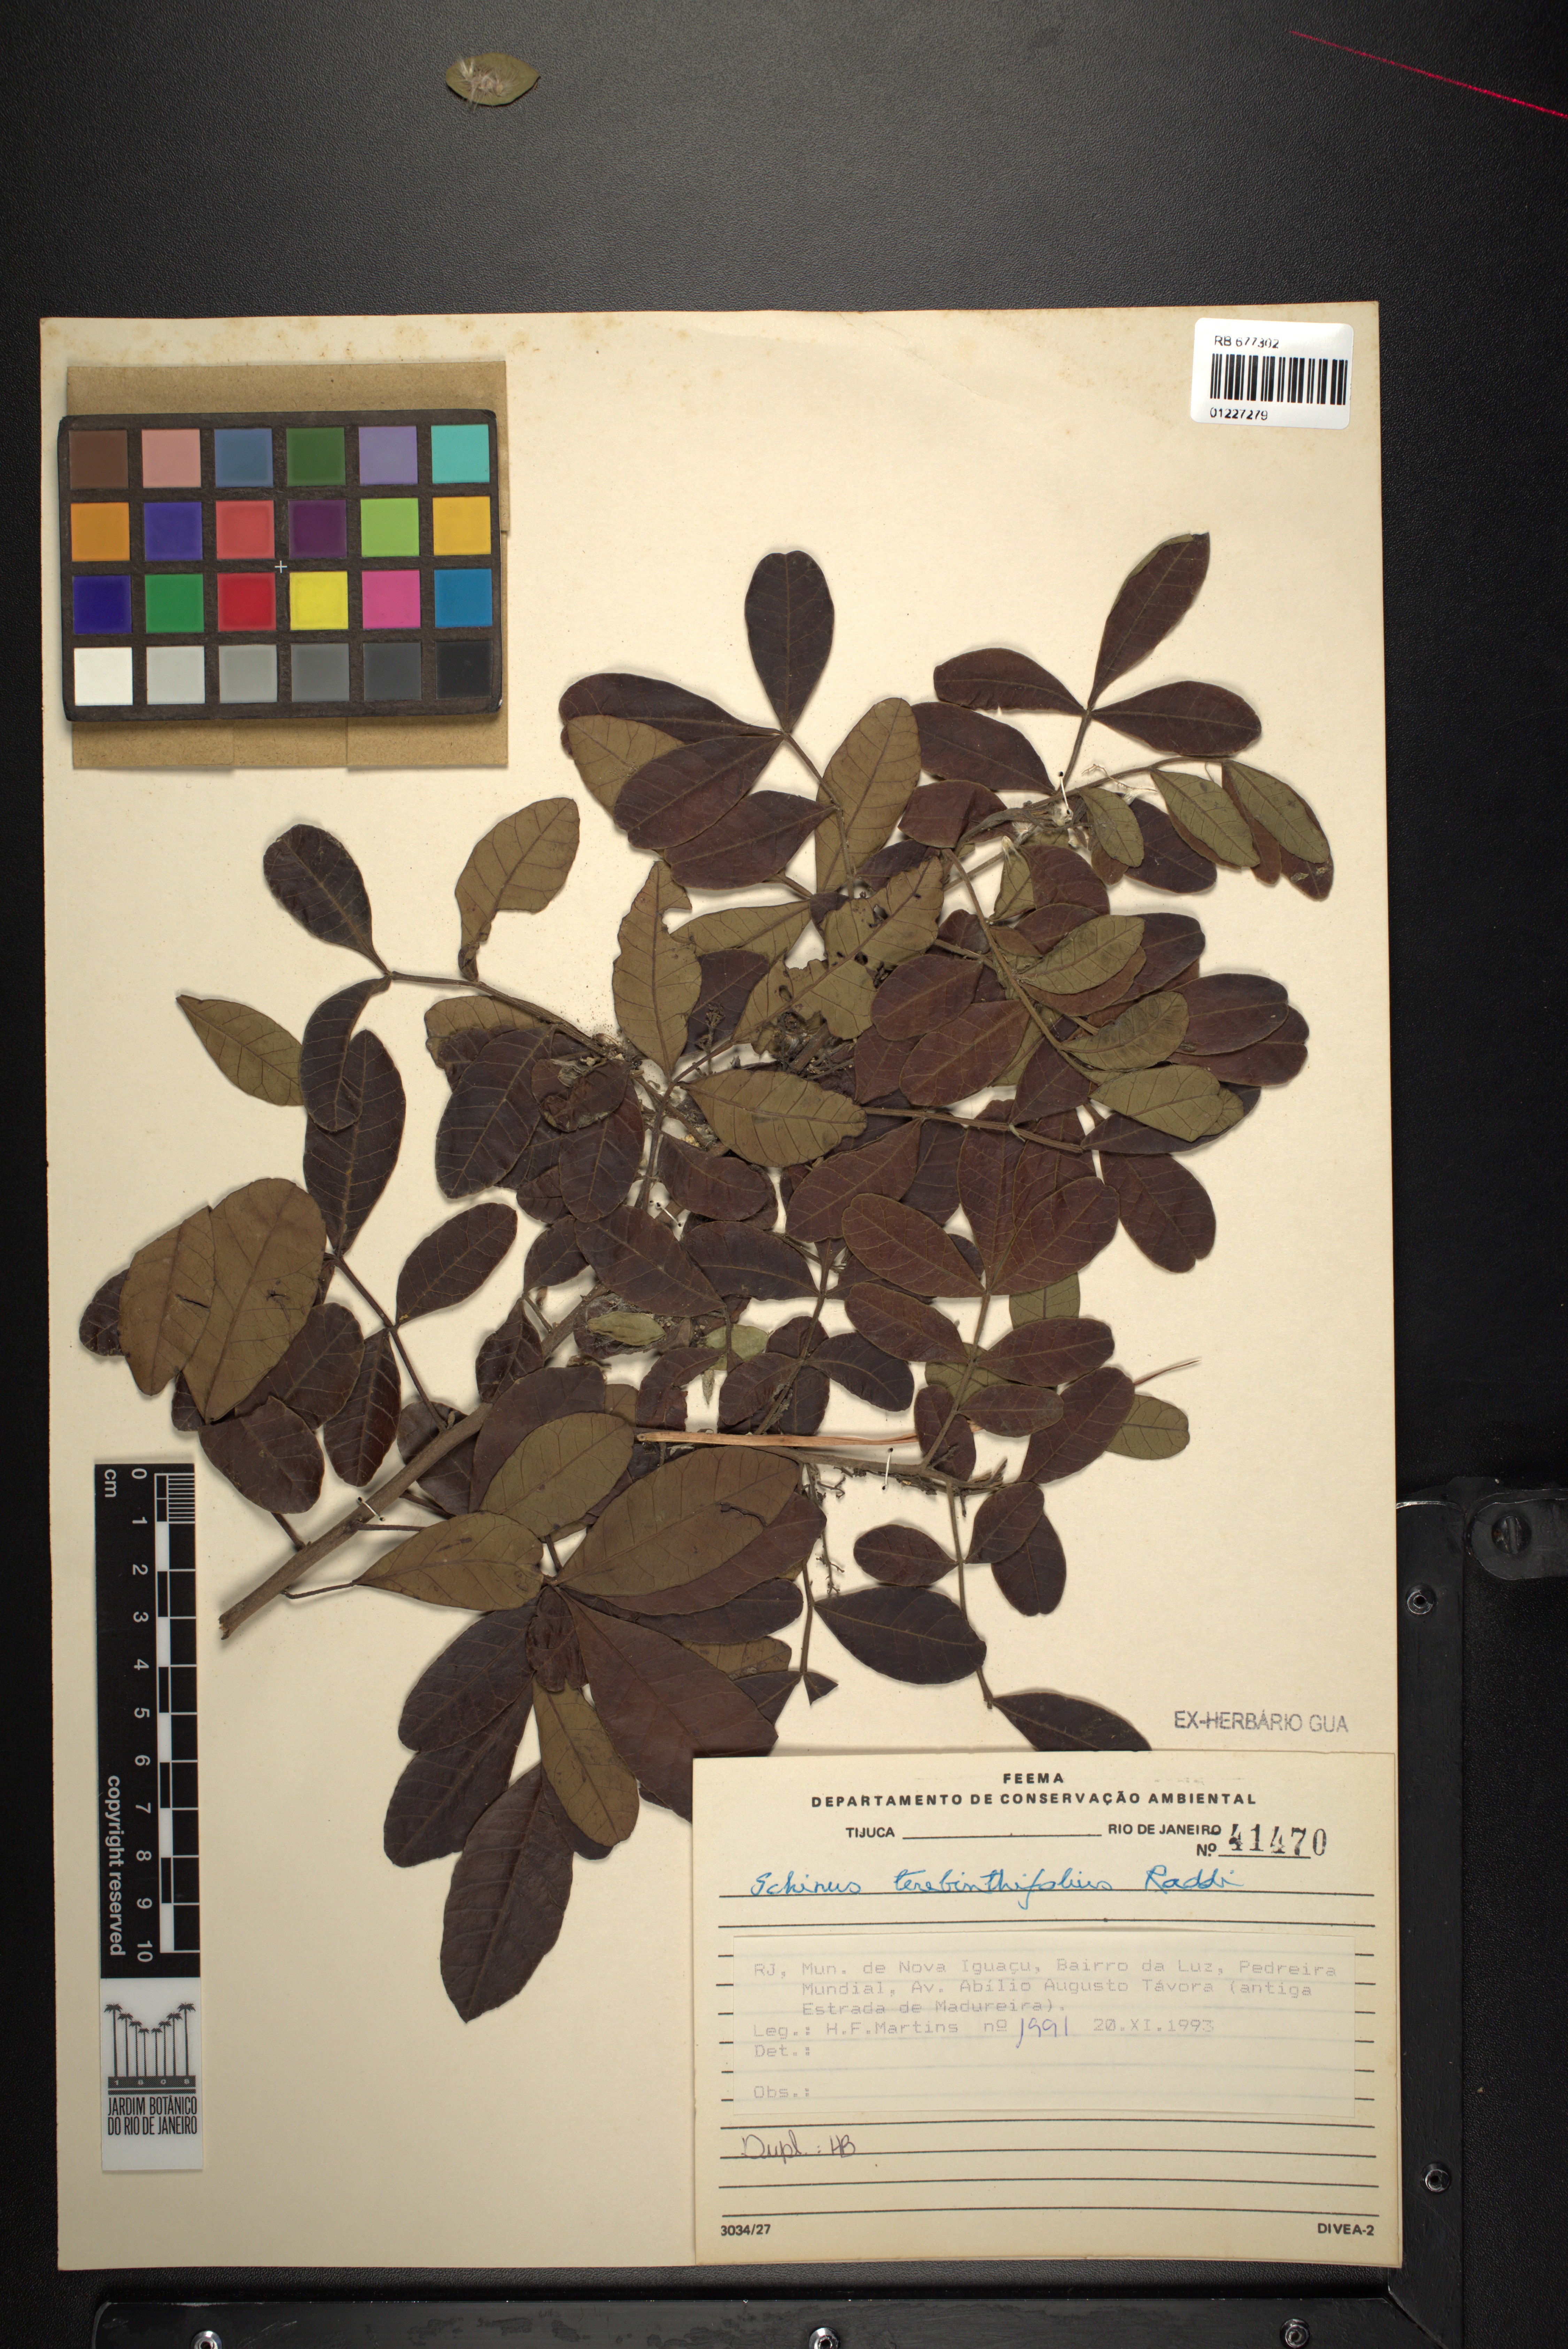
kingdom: Plantae
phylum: Tracheophyta
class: Magnoliopsida
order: Sapindales
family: Anacardiaceae
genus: Schinus
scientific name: Schinus terebinthifolia
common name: Brazilian peppertree
